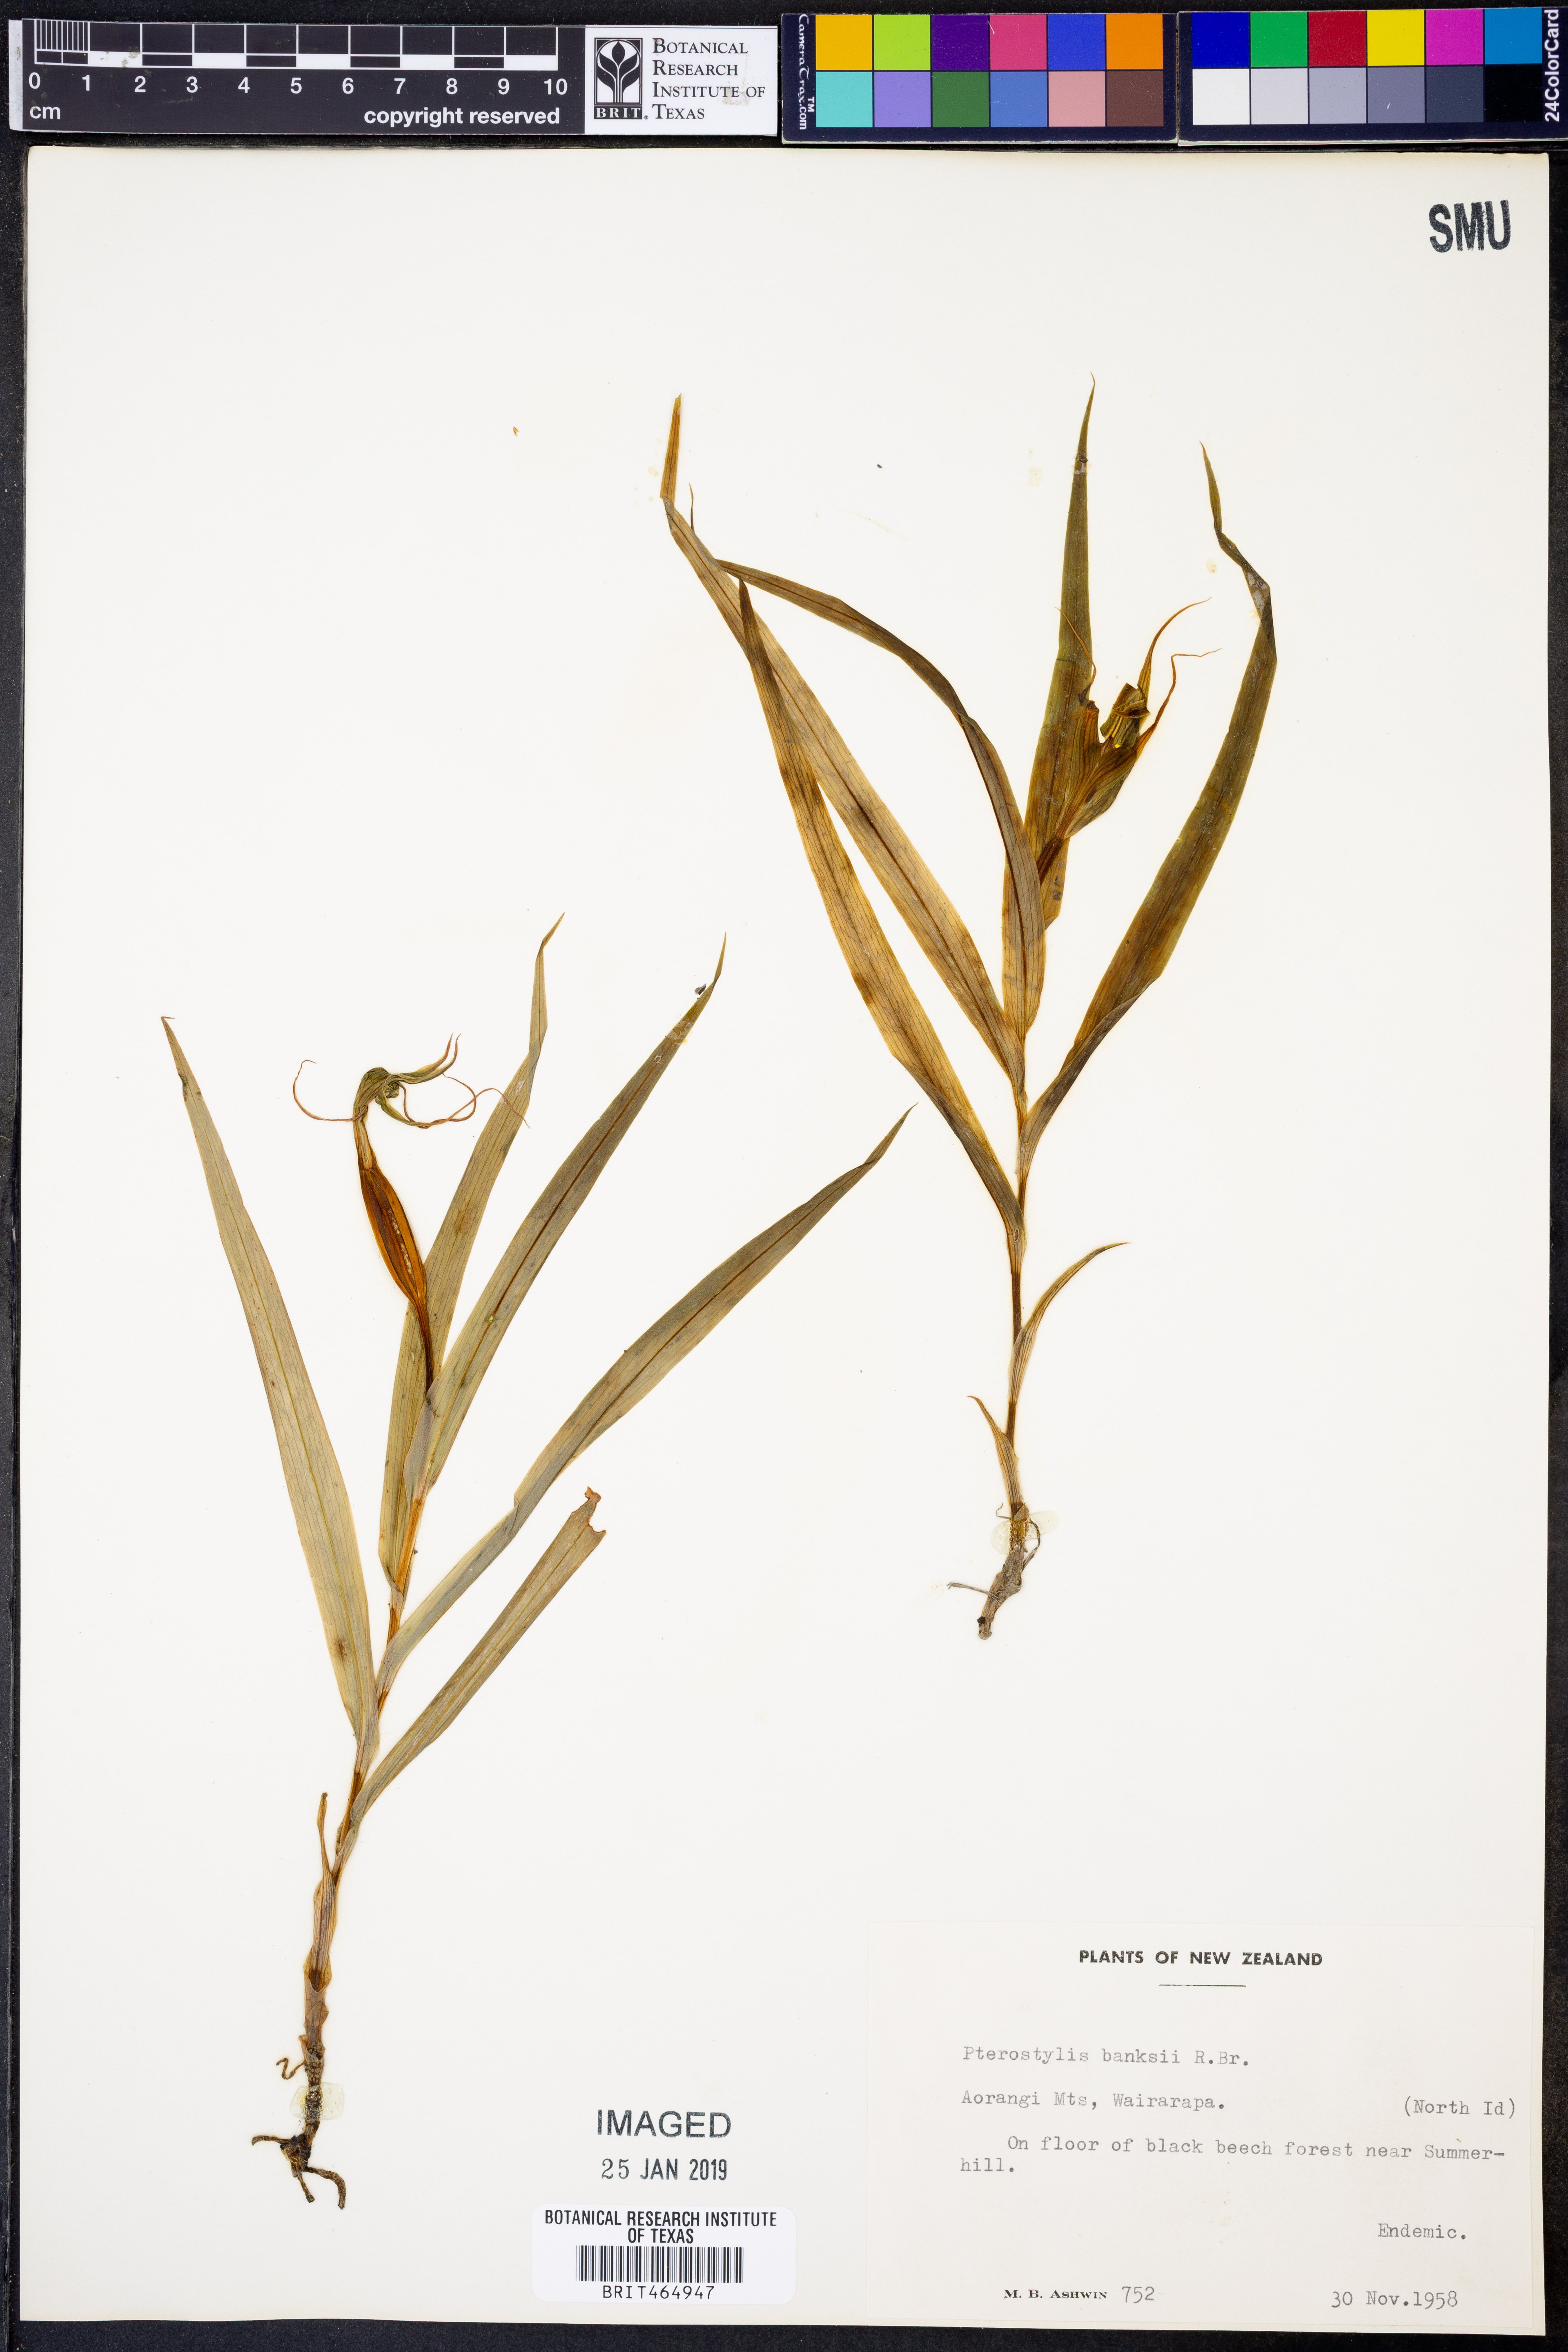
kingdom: Plantae
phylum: Tracheophyta
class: Liliopsida
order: Asparagales
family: Orchidaceae
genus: Pterostylis
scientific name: Pterostylis banksii
